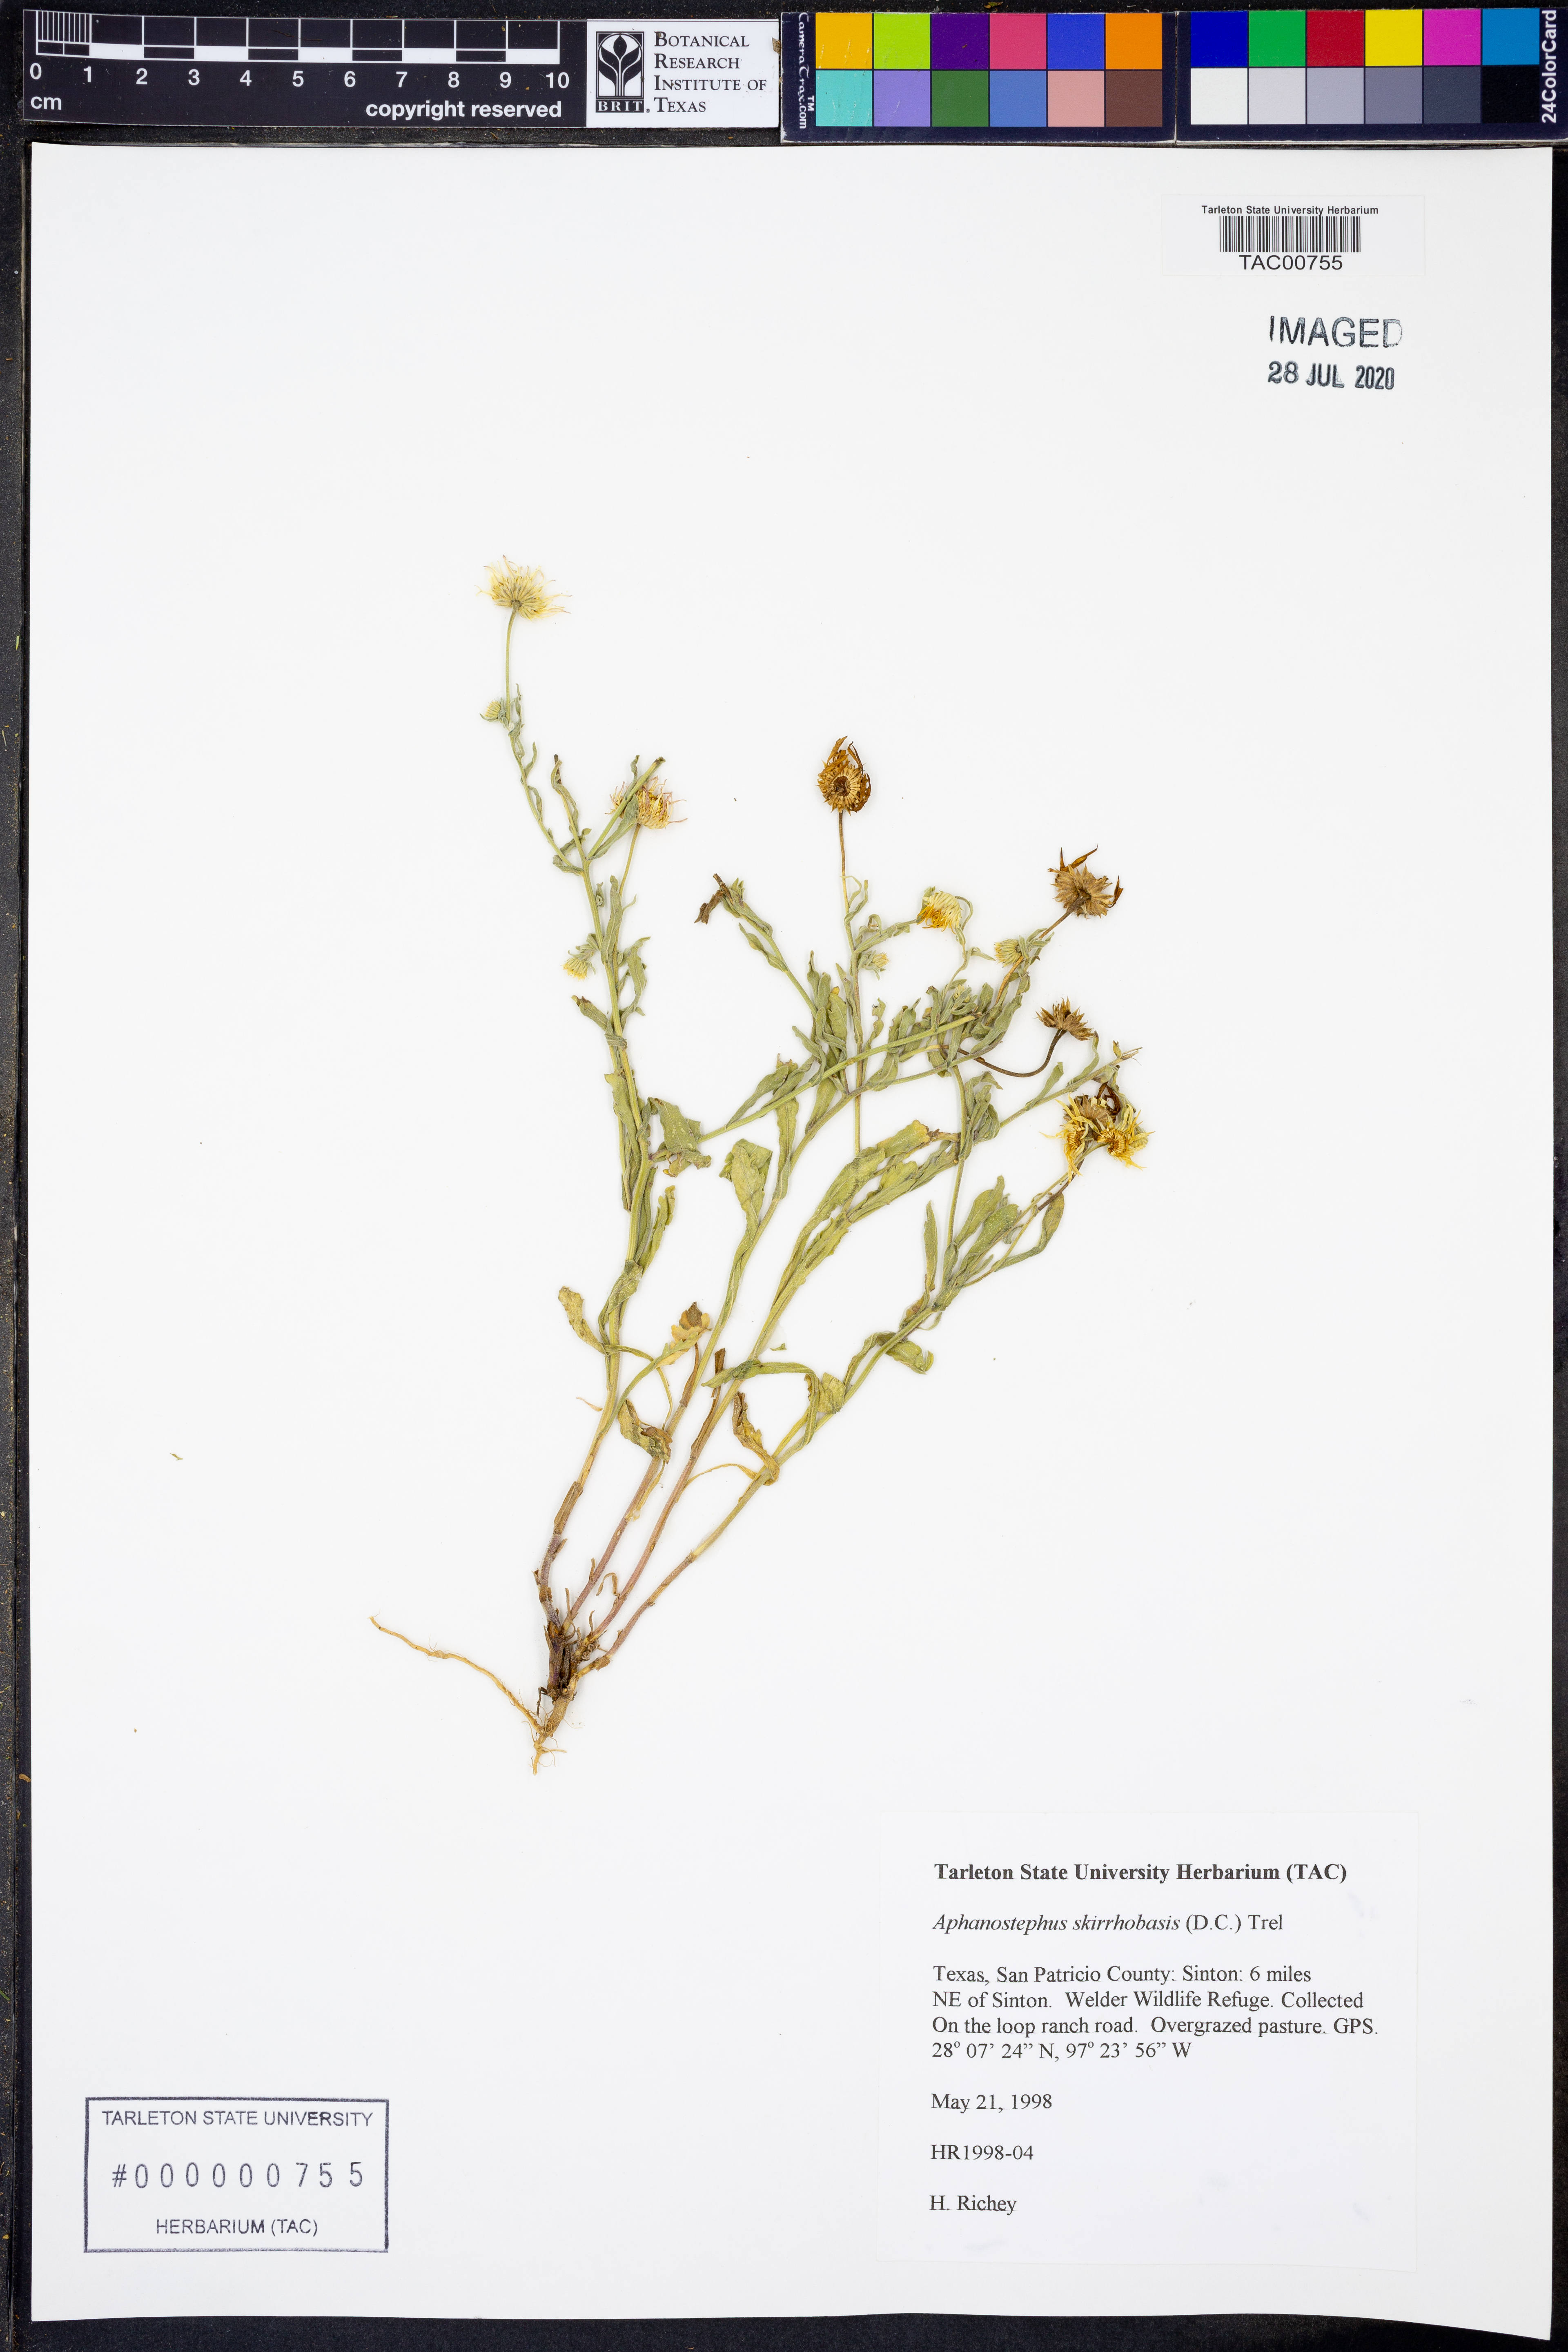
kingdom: Plantae
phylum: Tracheophyta
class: Magnoliopsida
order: Asterales
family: Asteraceae
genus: Aphanostephus
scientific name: Aphanostephus skirrhobasis
